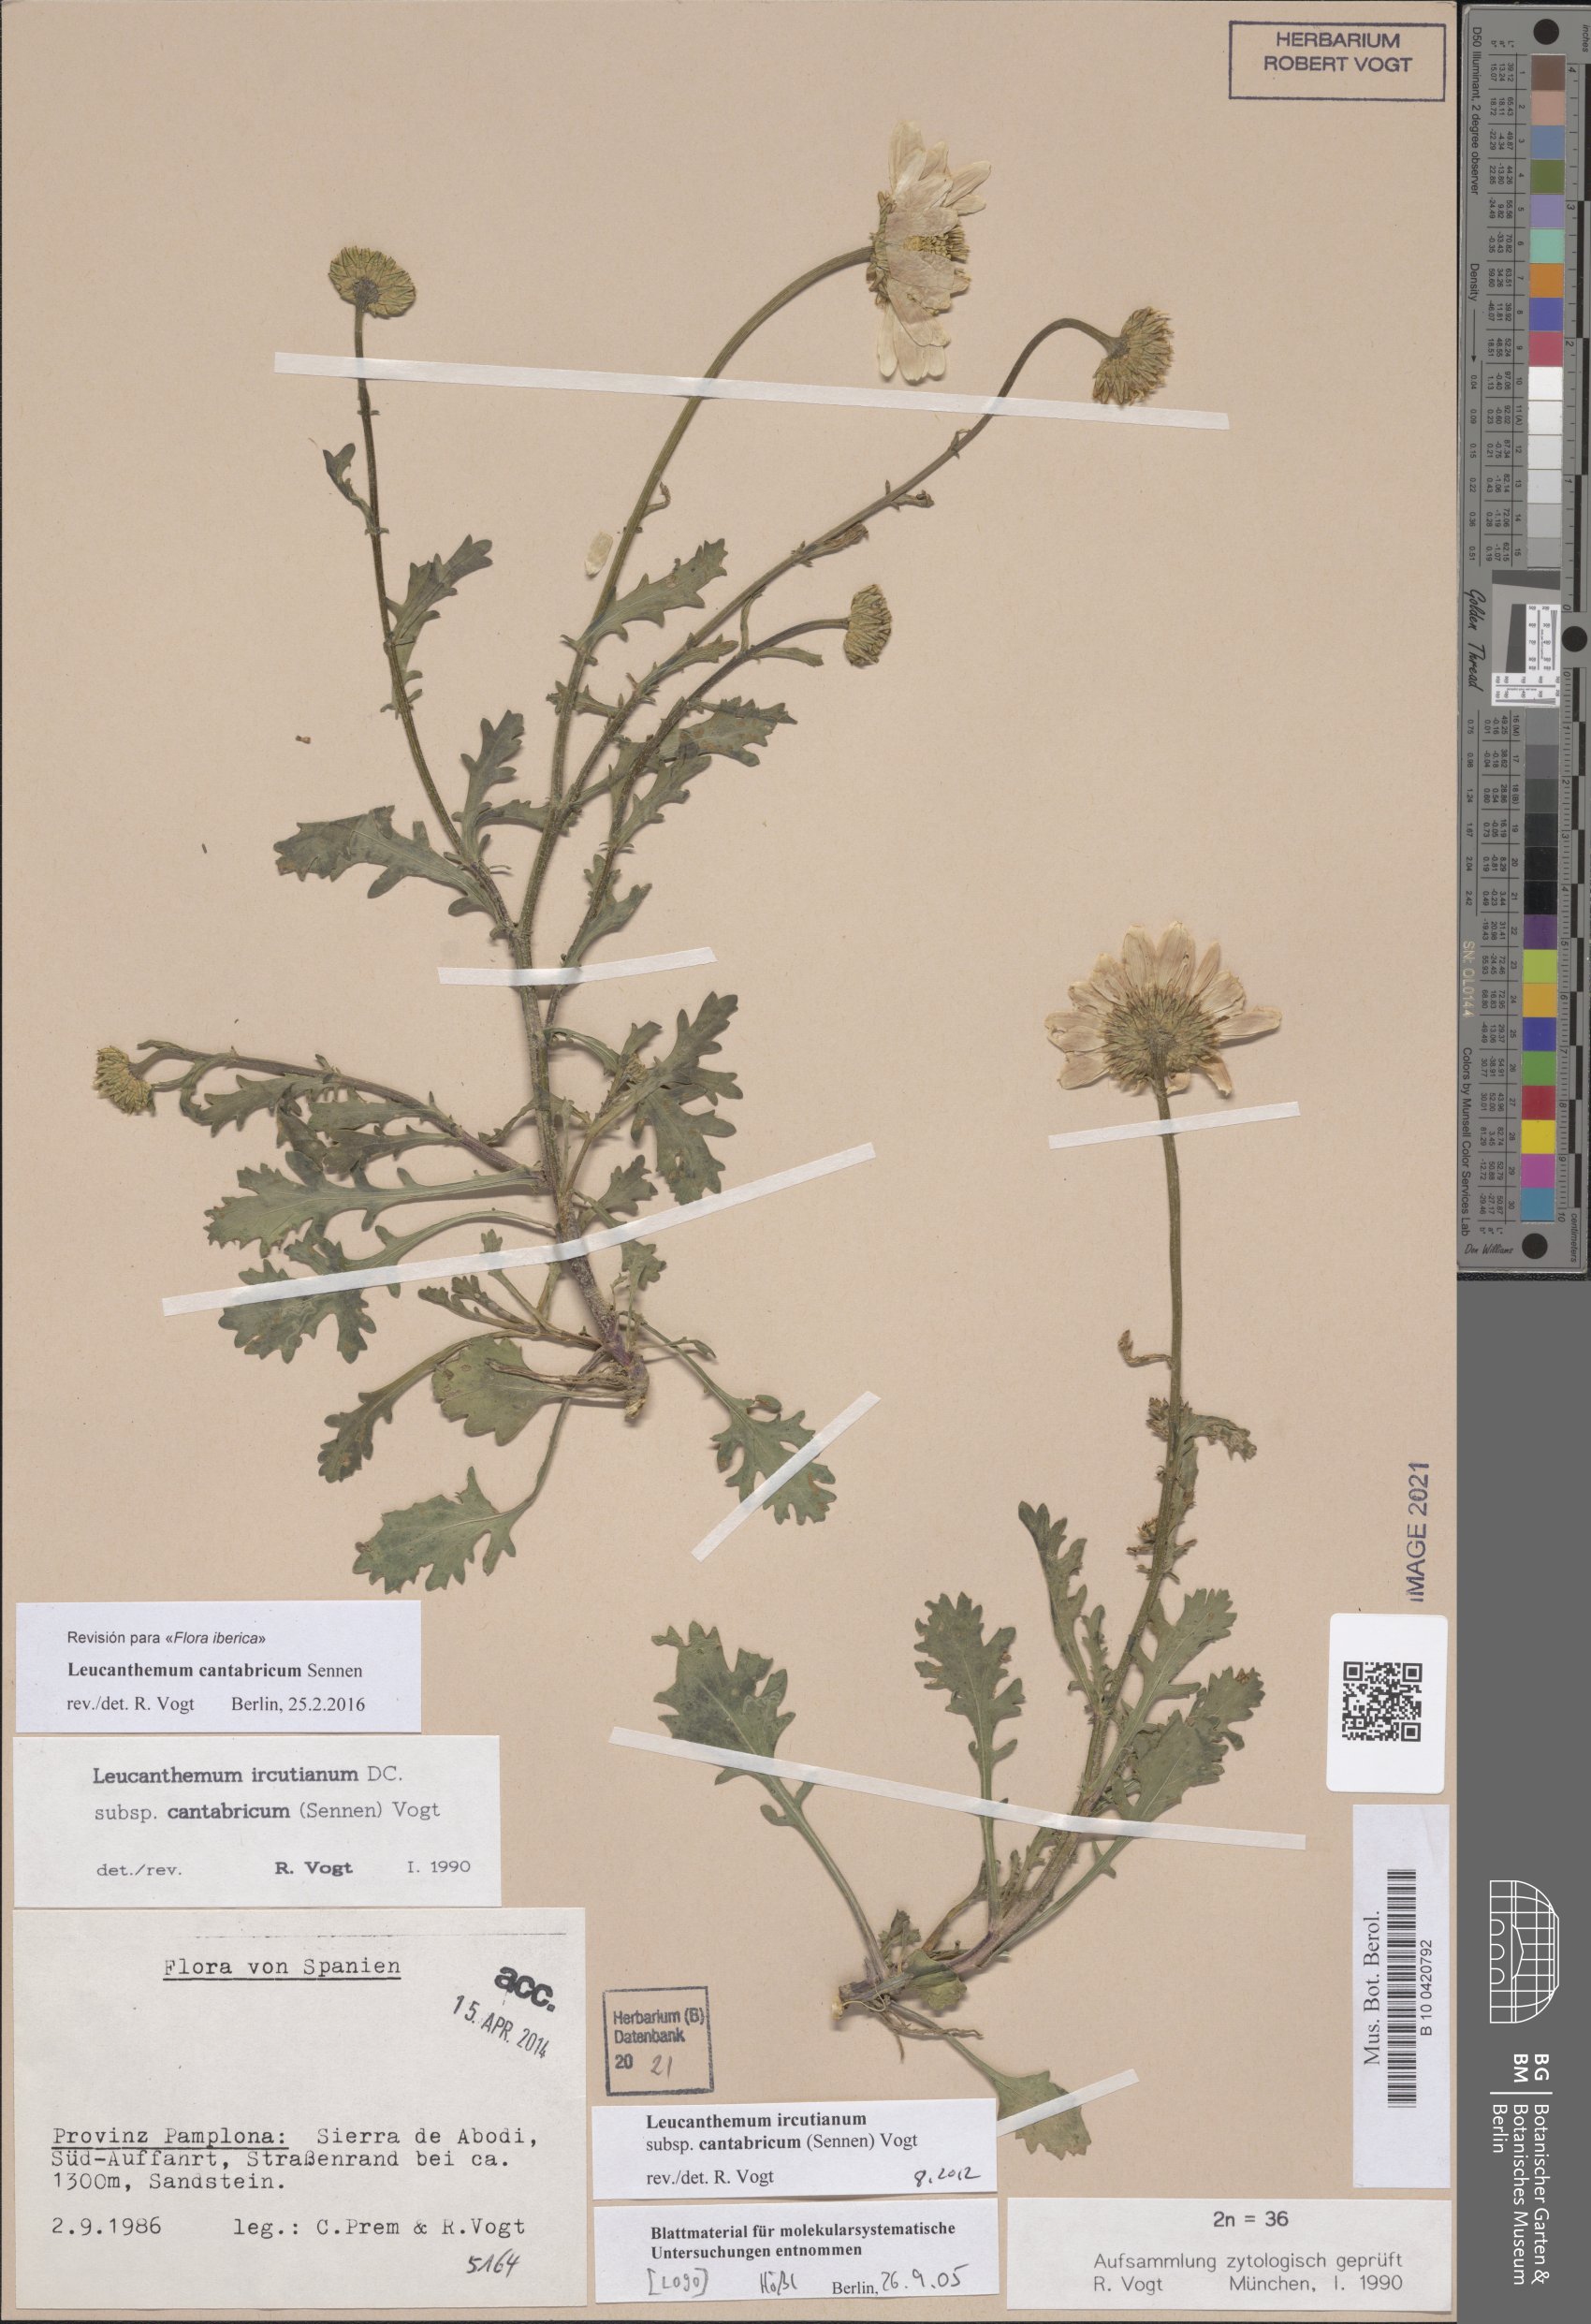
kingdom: Plantae
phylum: Tracheophyta
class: Magnoliopsida
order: Asterales
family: Asteraceae
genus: Leucanthemum
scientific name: Leucanthemum cantabricum
